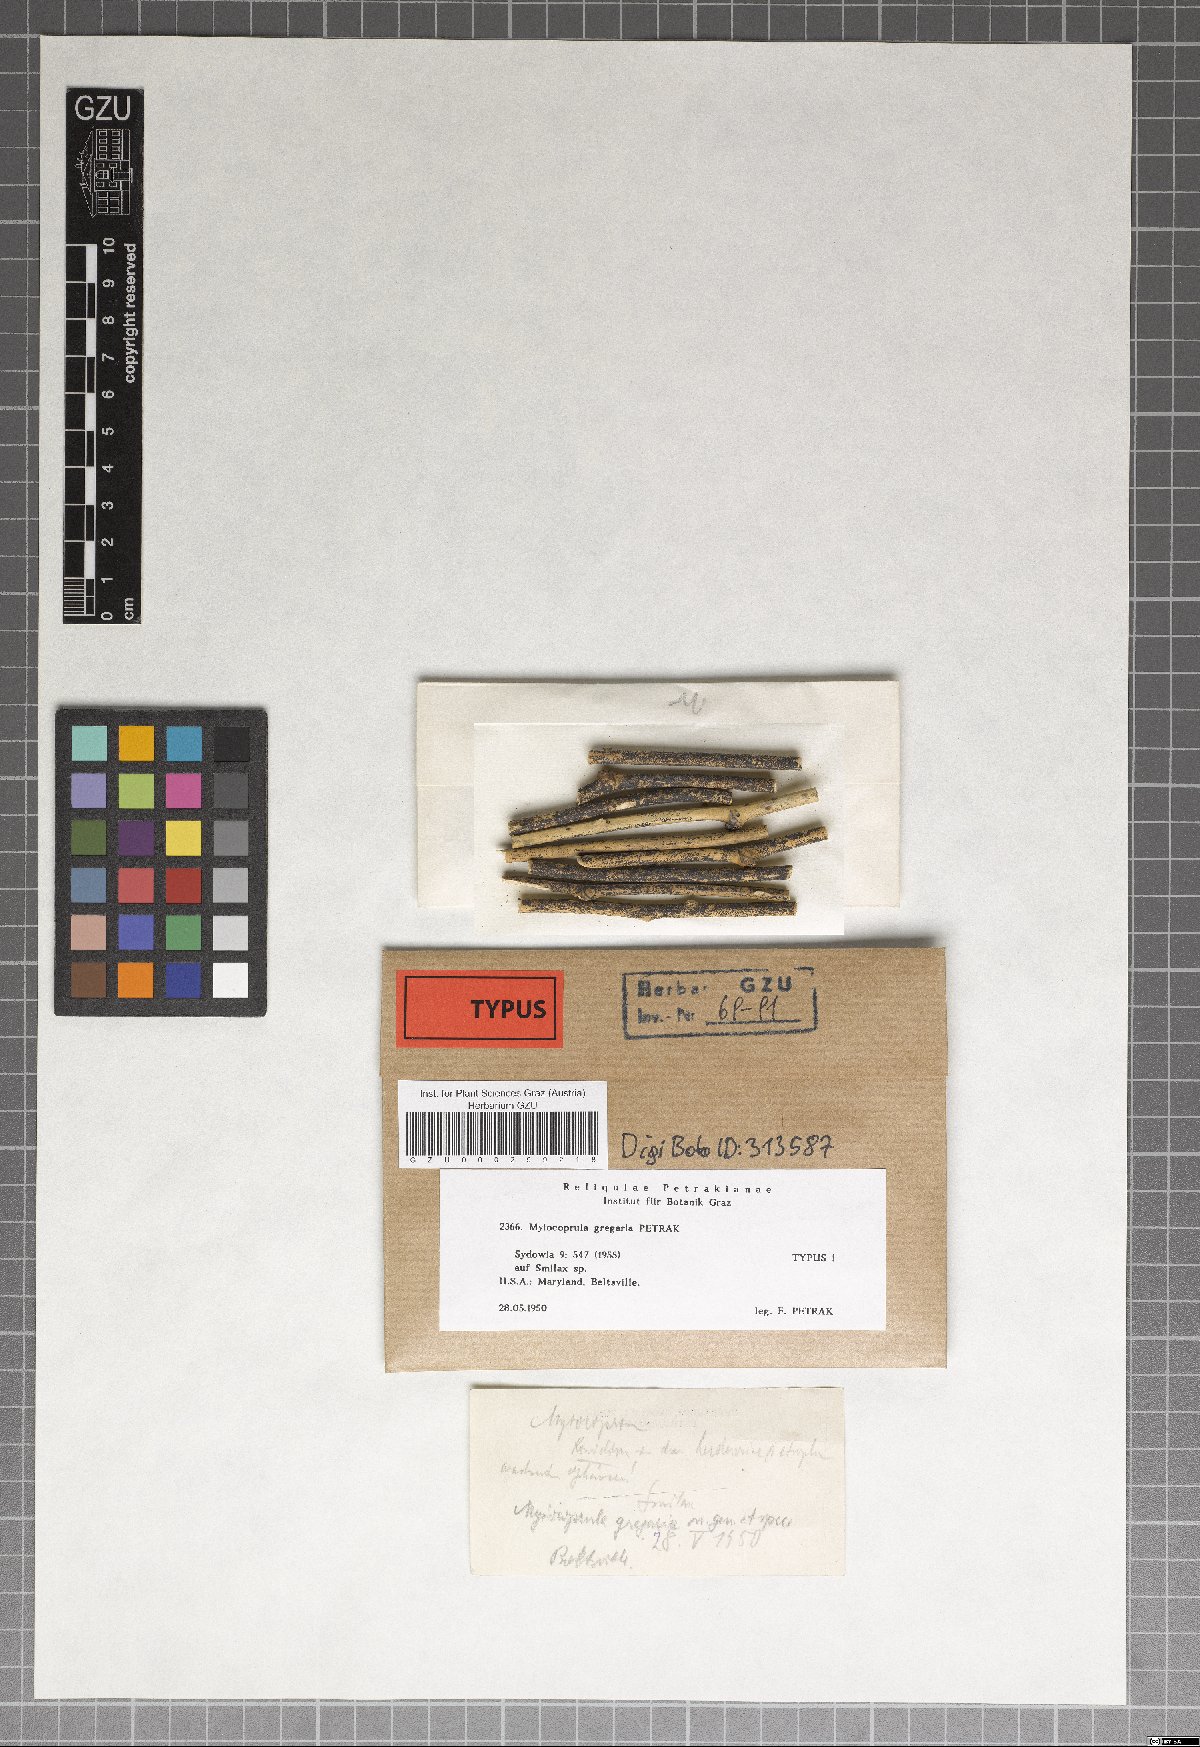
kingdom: Fungi
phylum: Ascomycota
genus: Myiocoprula
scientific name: Myiocoprula gregaria
